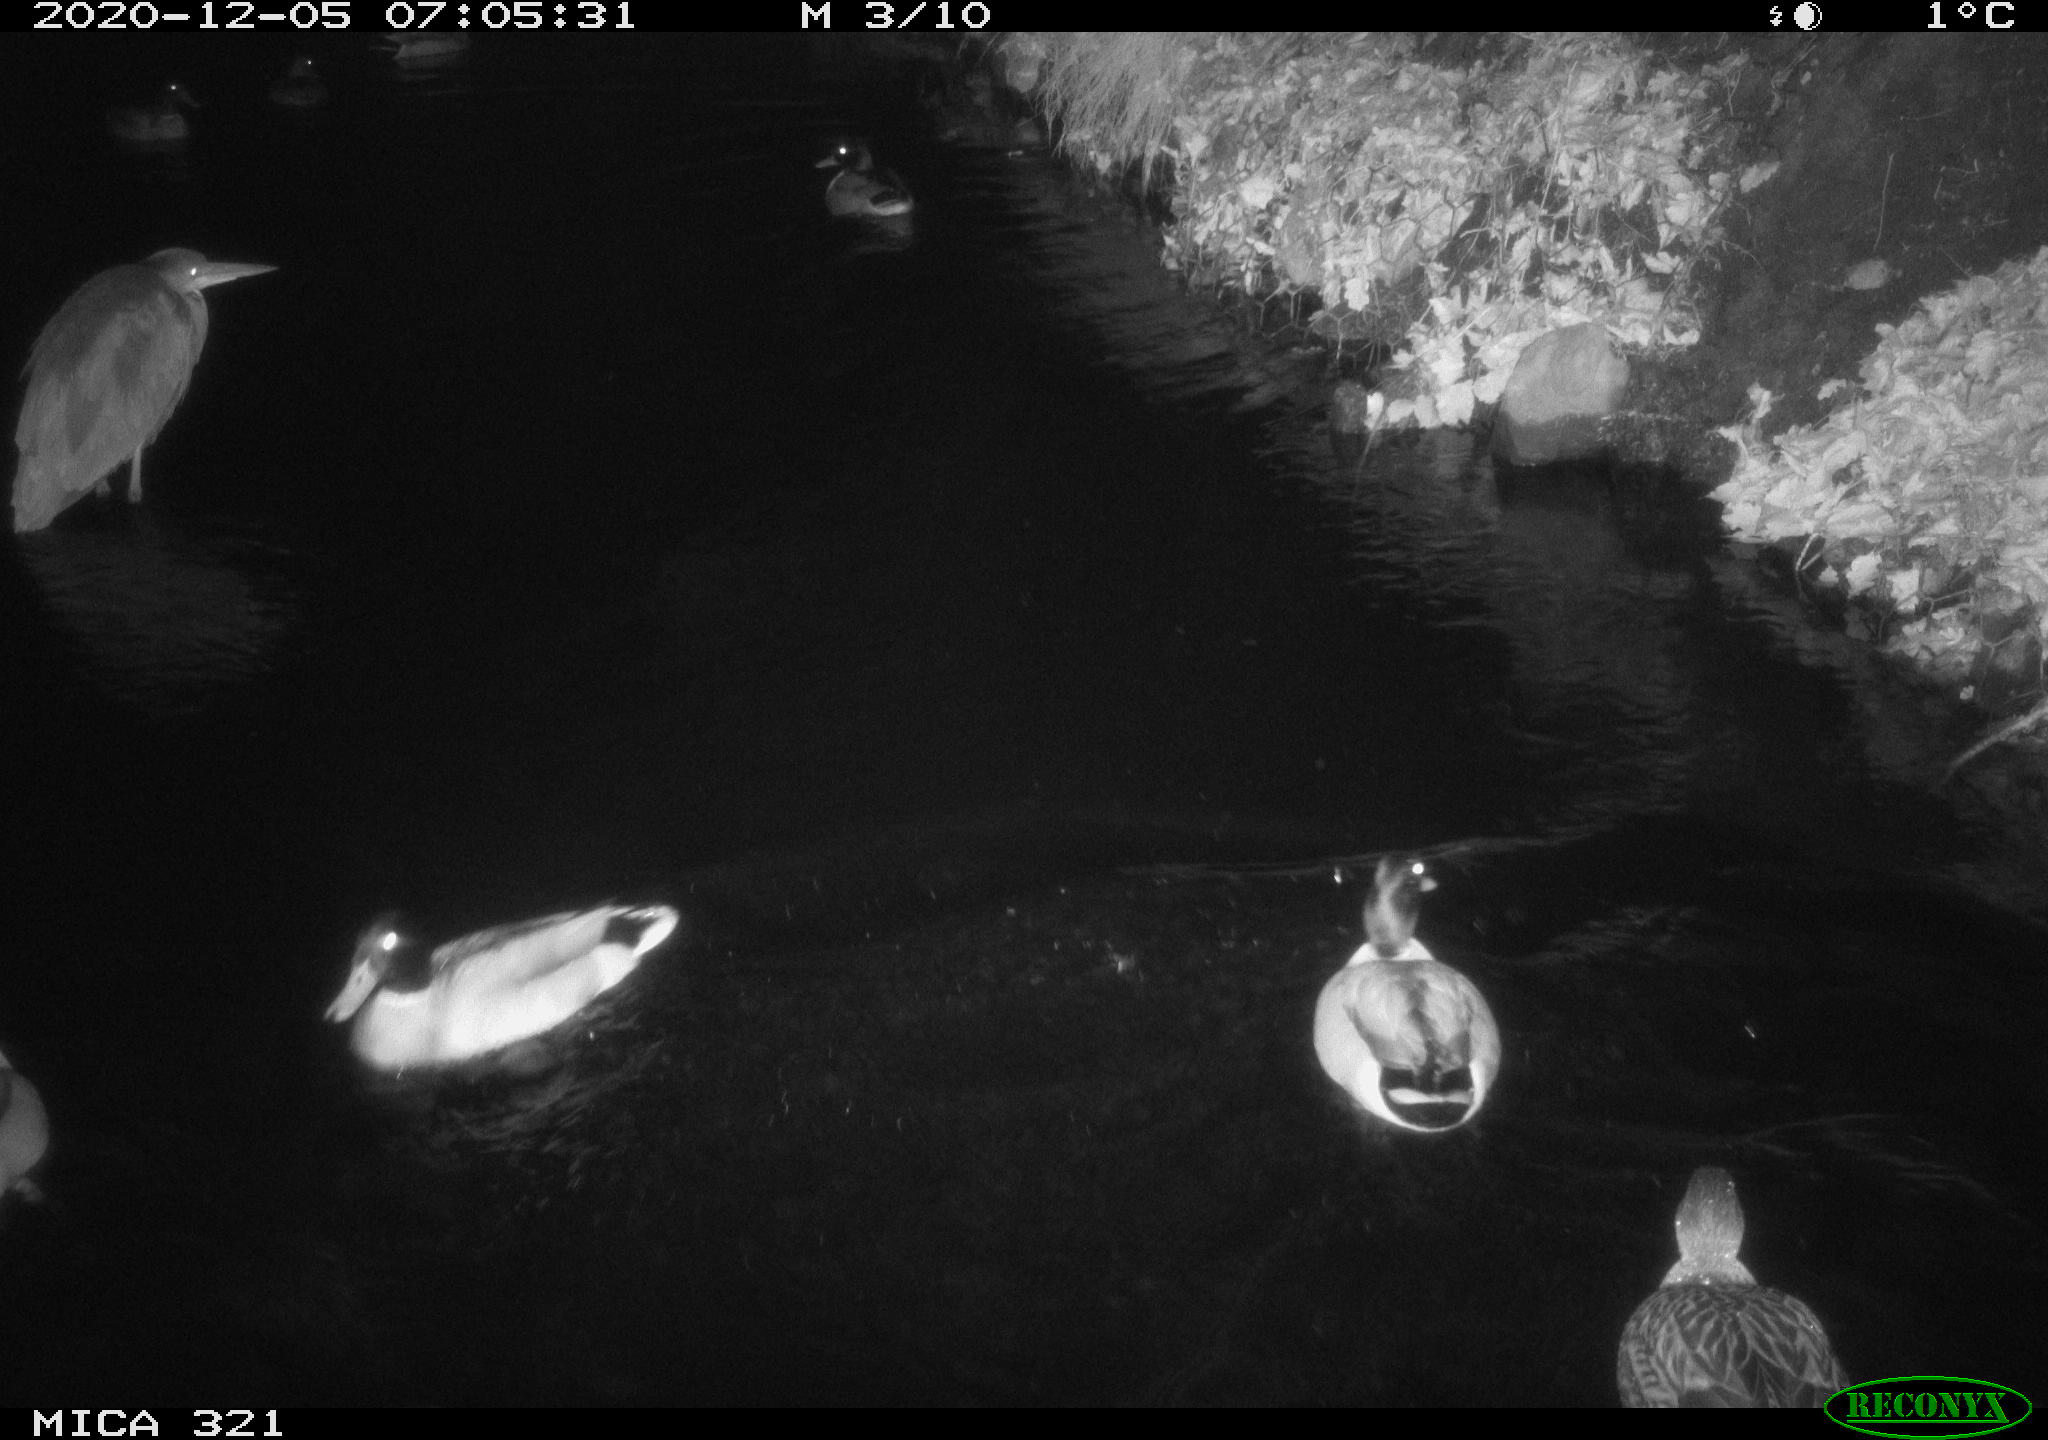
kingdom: Animalia
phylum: Chordata
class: Aves
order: Pelecaniformes
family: Ardeidae
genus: Ardea
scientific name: Ardea cinerea
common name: Grey heron
